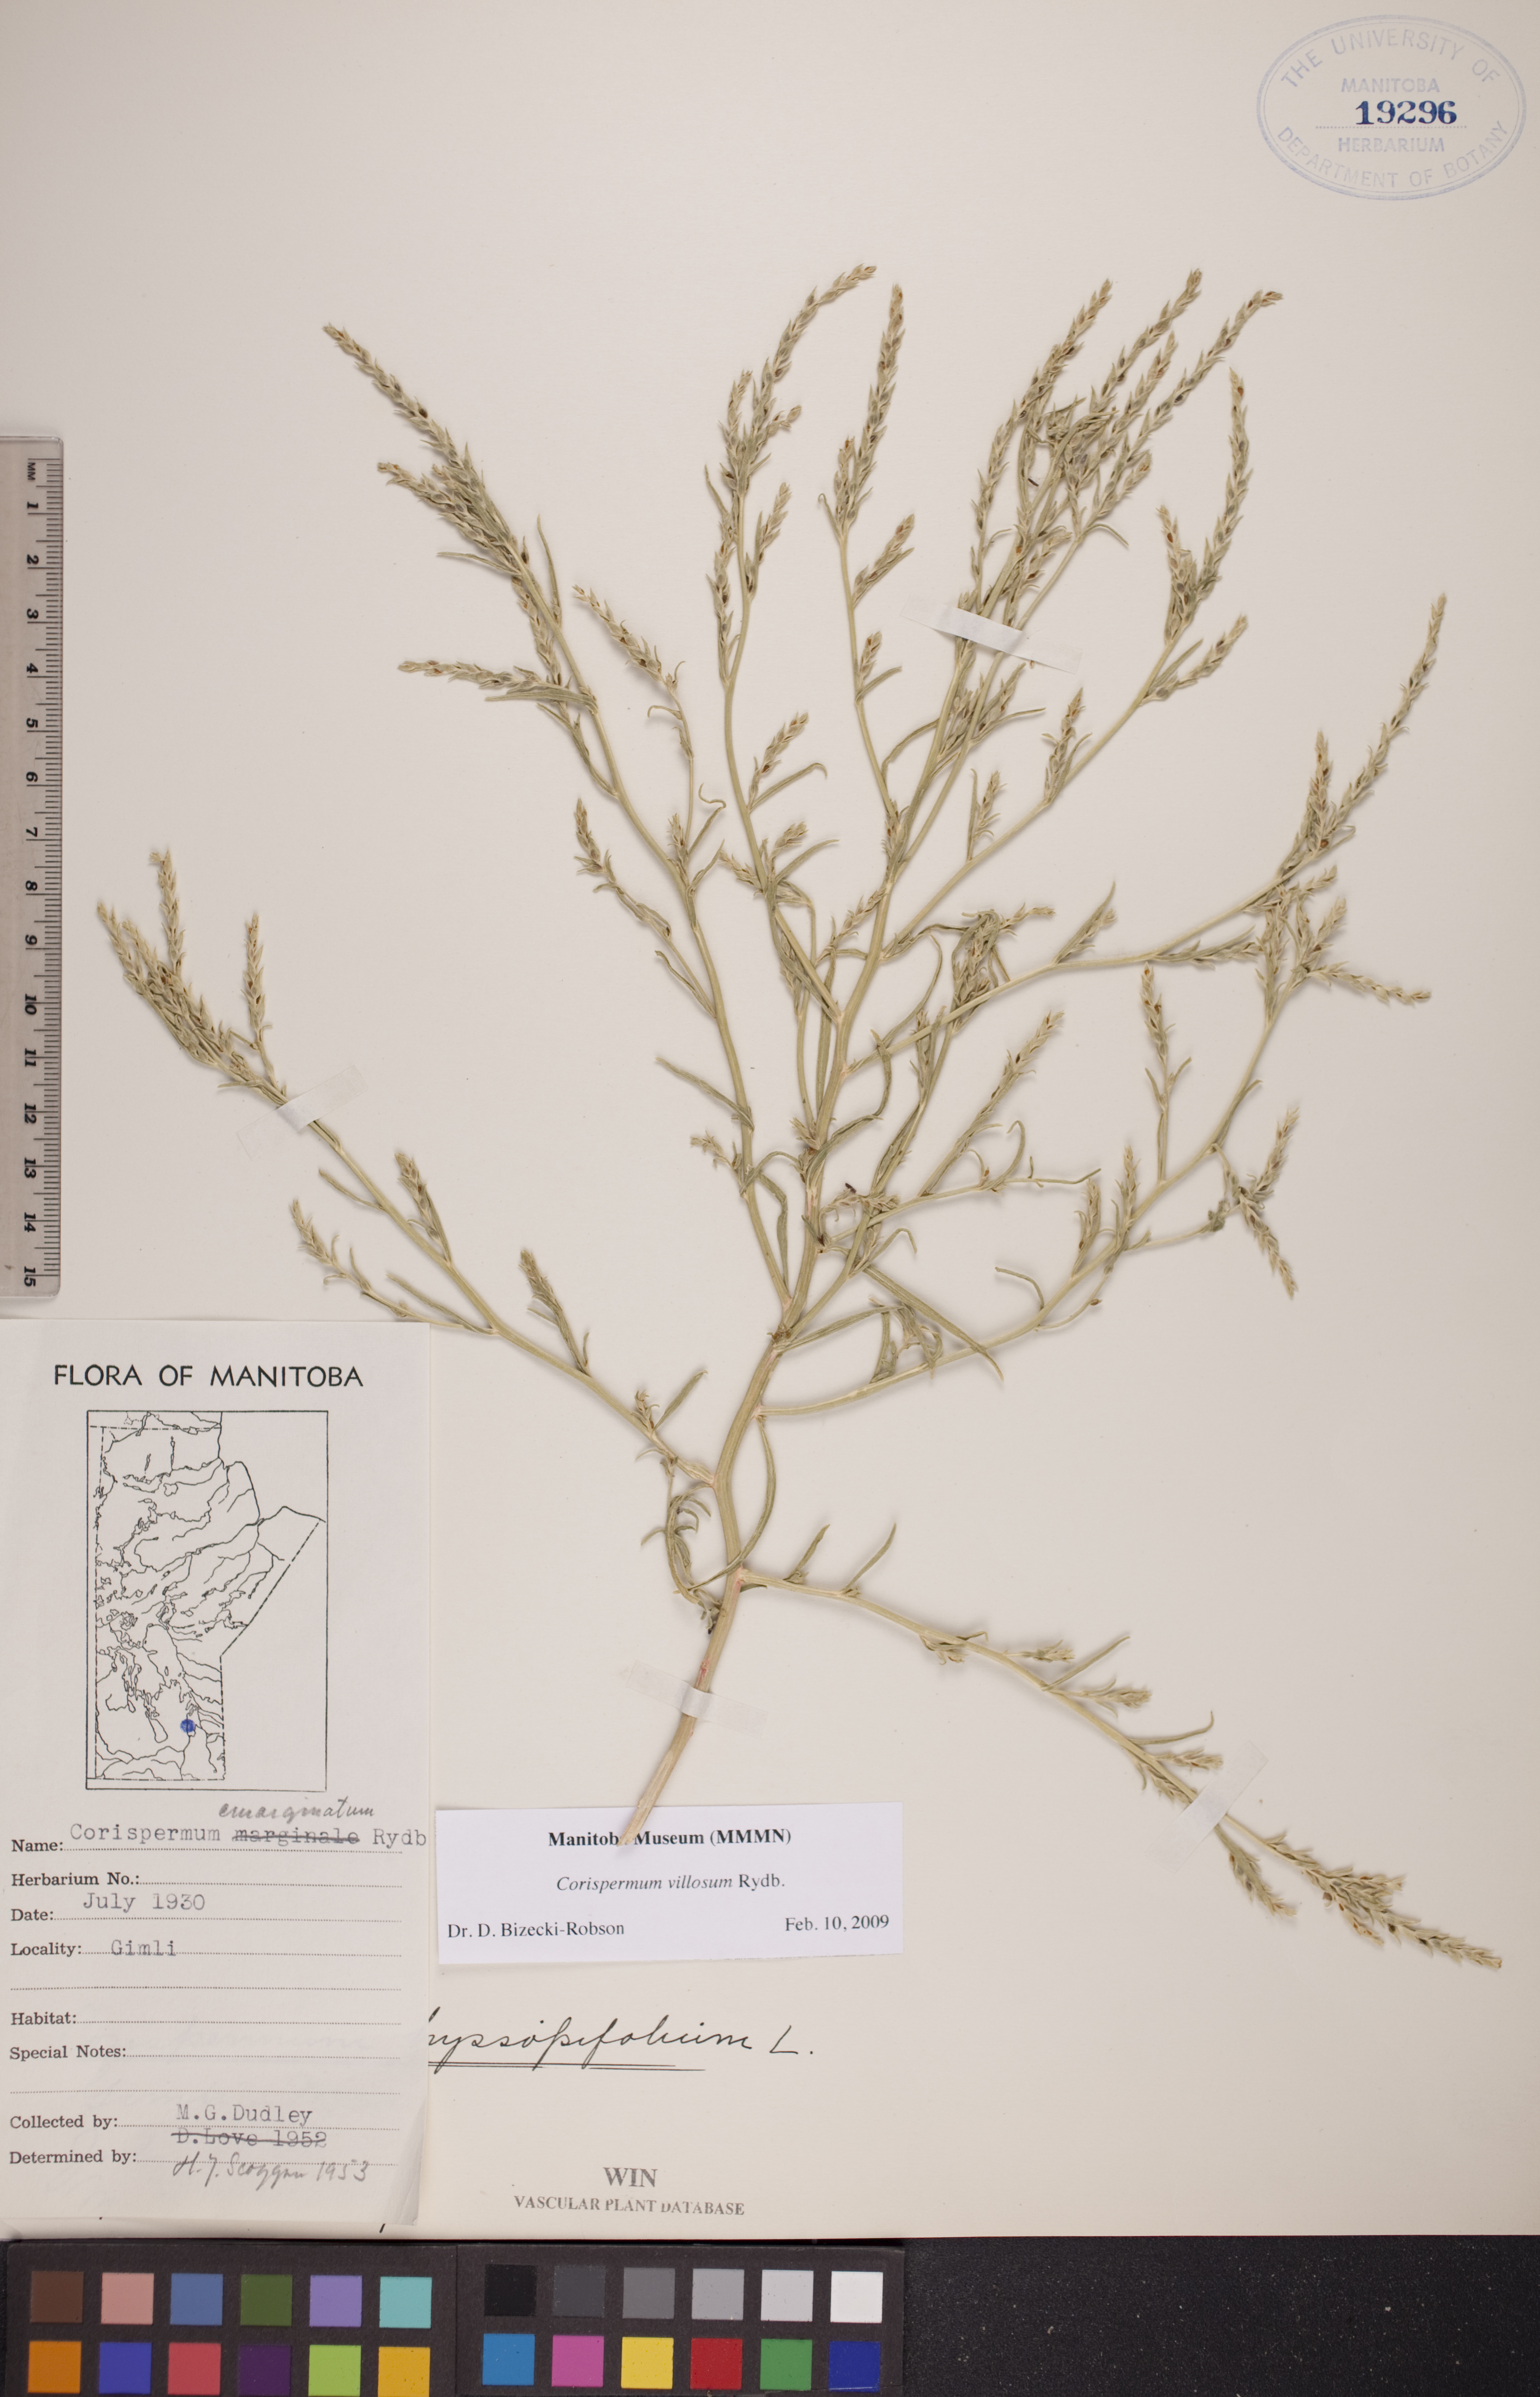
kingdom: Plantae
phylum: Tracheophyta
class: Magnoliopsida
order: Caryophyllales
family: Amaranthaceae
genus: Corispermum
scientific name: Corispermum villosum
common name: Hairy bugseed
